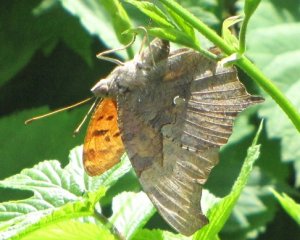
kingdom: Animalia
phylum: Arthropoda
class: Insecta
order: Lepidoptera
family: Nymphalidae
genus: Polygonia
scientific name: Polygonia interrogationis
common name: Question Mark
